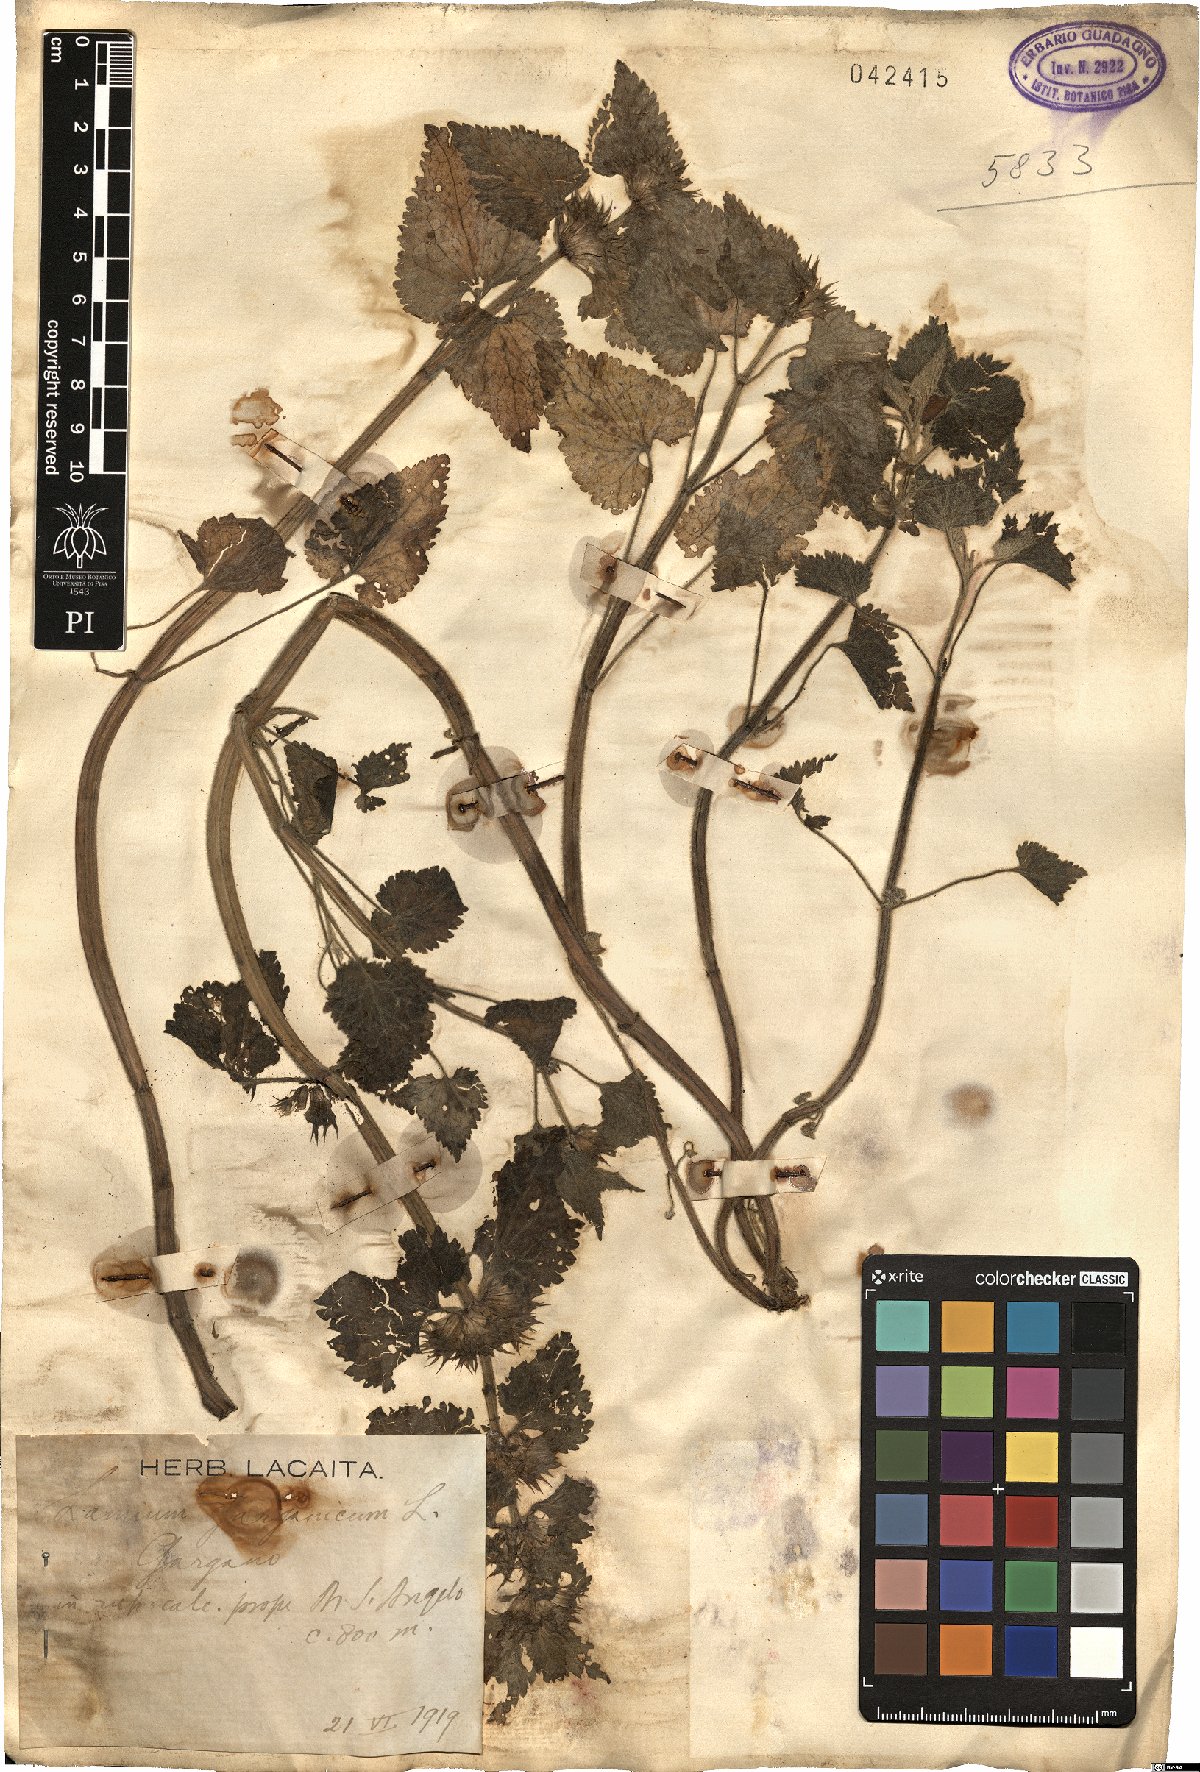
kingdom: Plantae
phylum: Tracheophyta
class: Magnoliopsida
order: Lamiales
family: Lamiaceae
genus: Lamium
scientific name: Lamium garganicum
